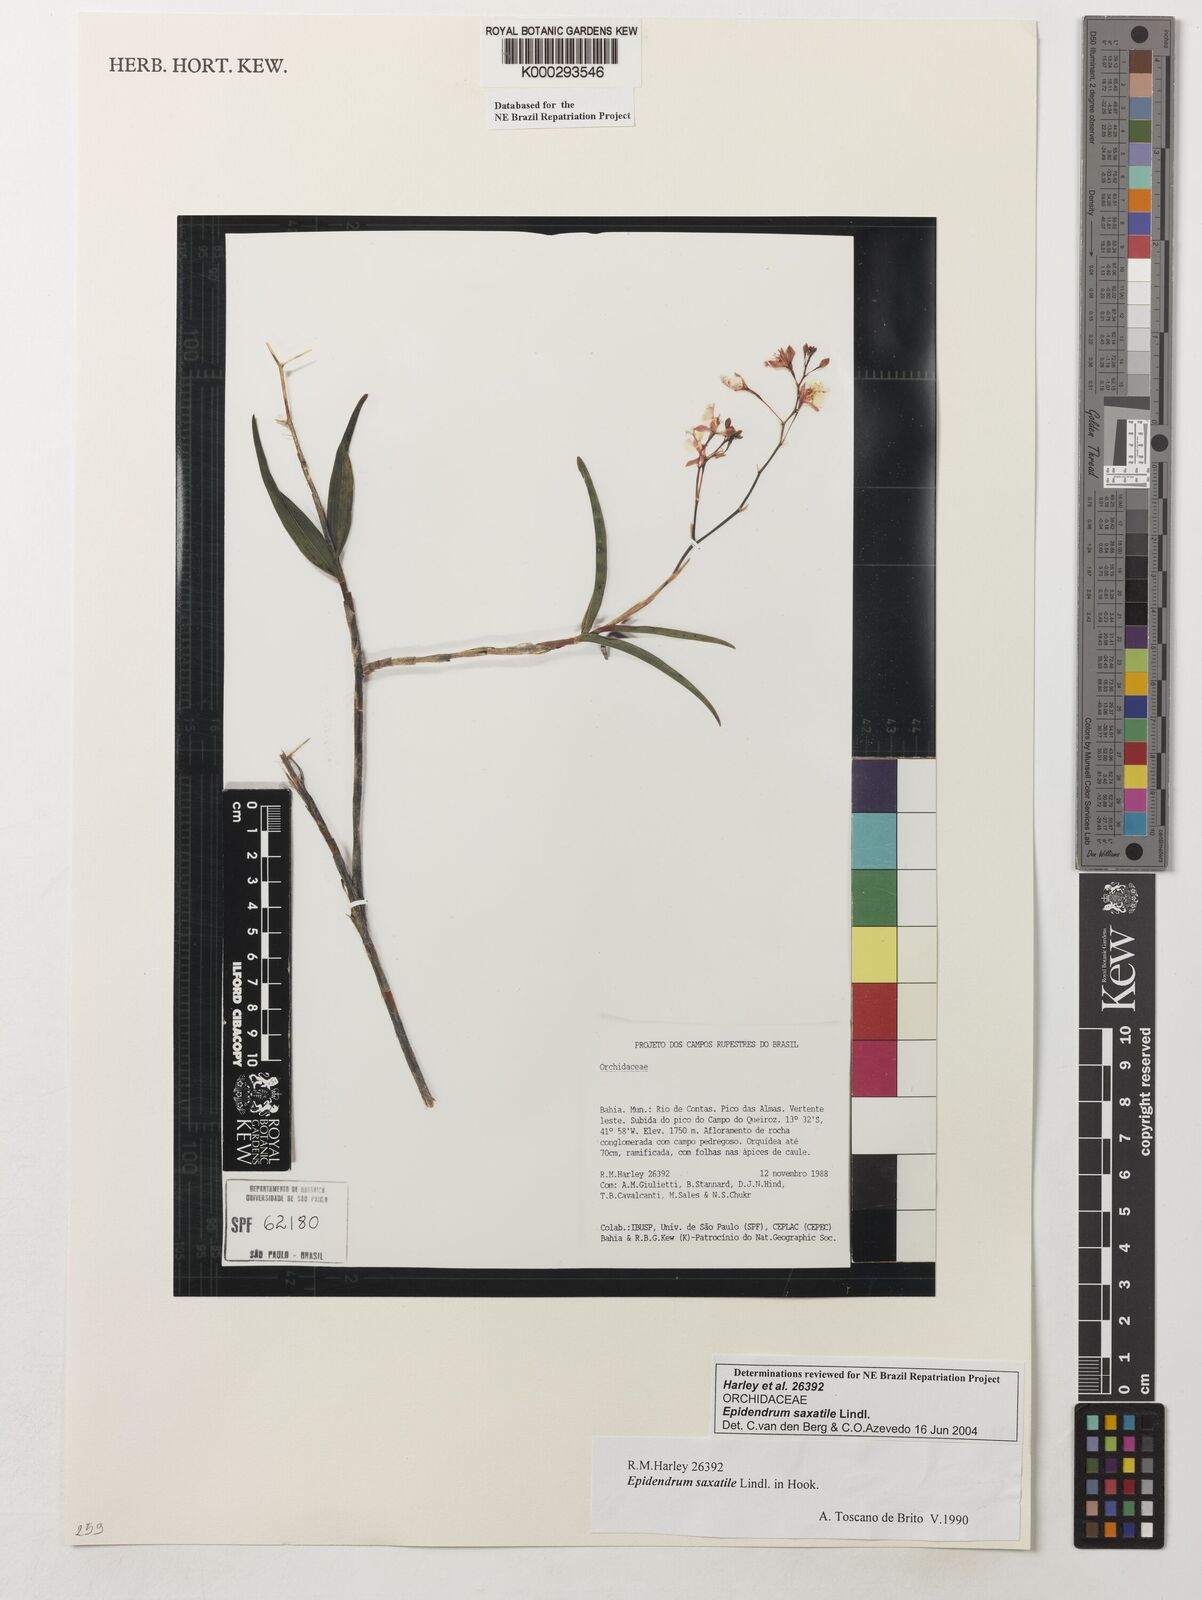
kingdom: Plantae
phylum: Tracheophyta
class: Liliopsida
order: Asparagales
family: Orchidaceae
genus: Epidendrum
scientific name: Epidendrum saxatile
